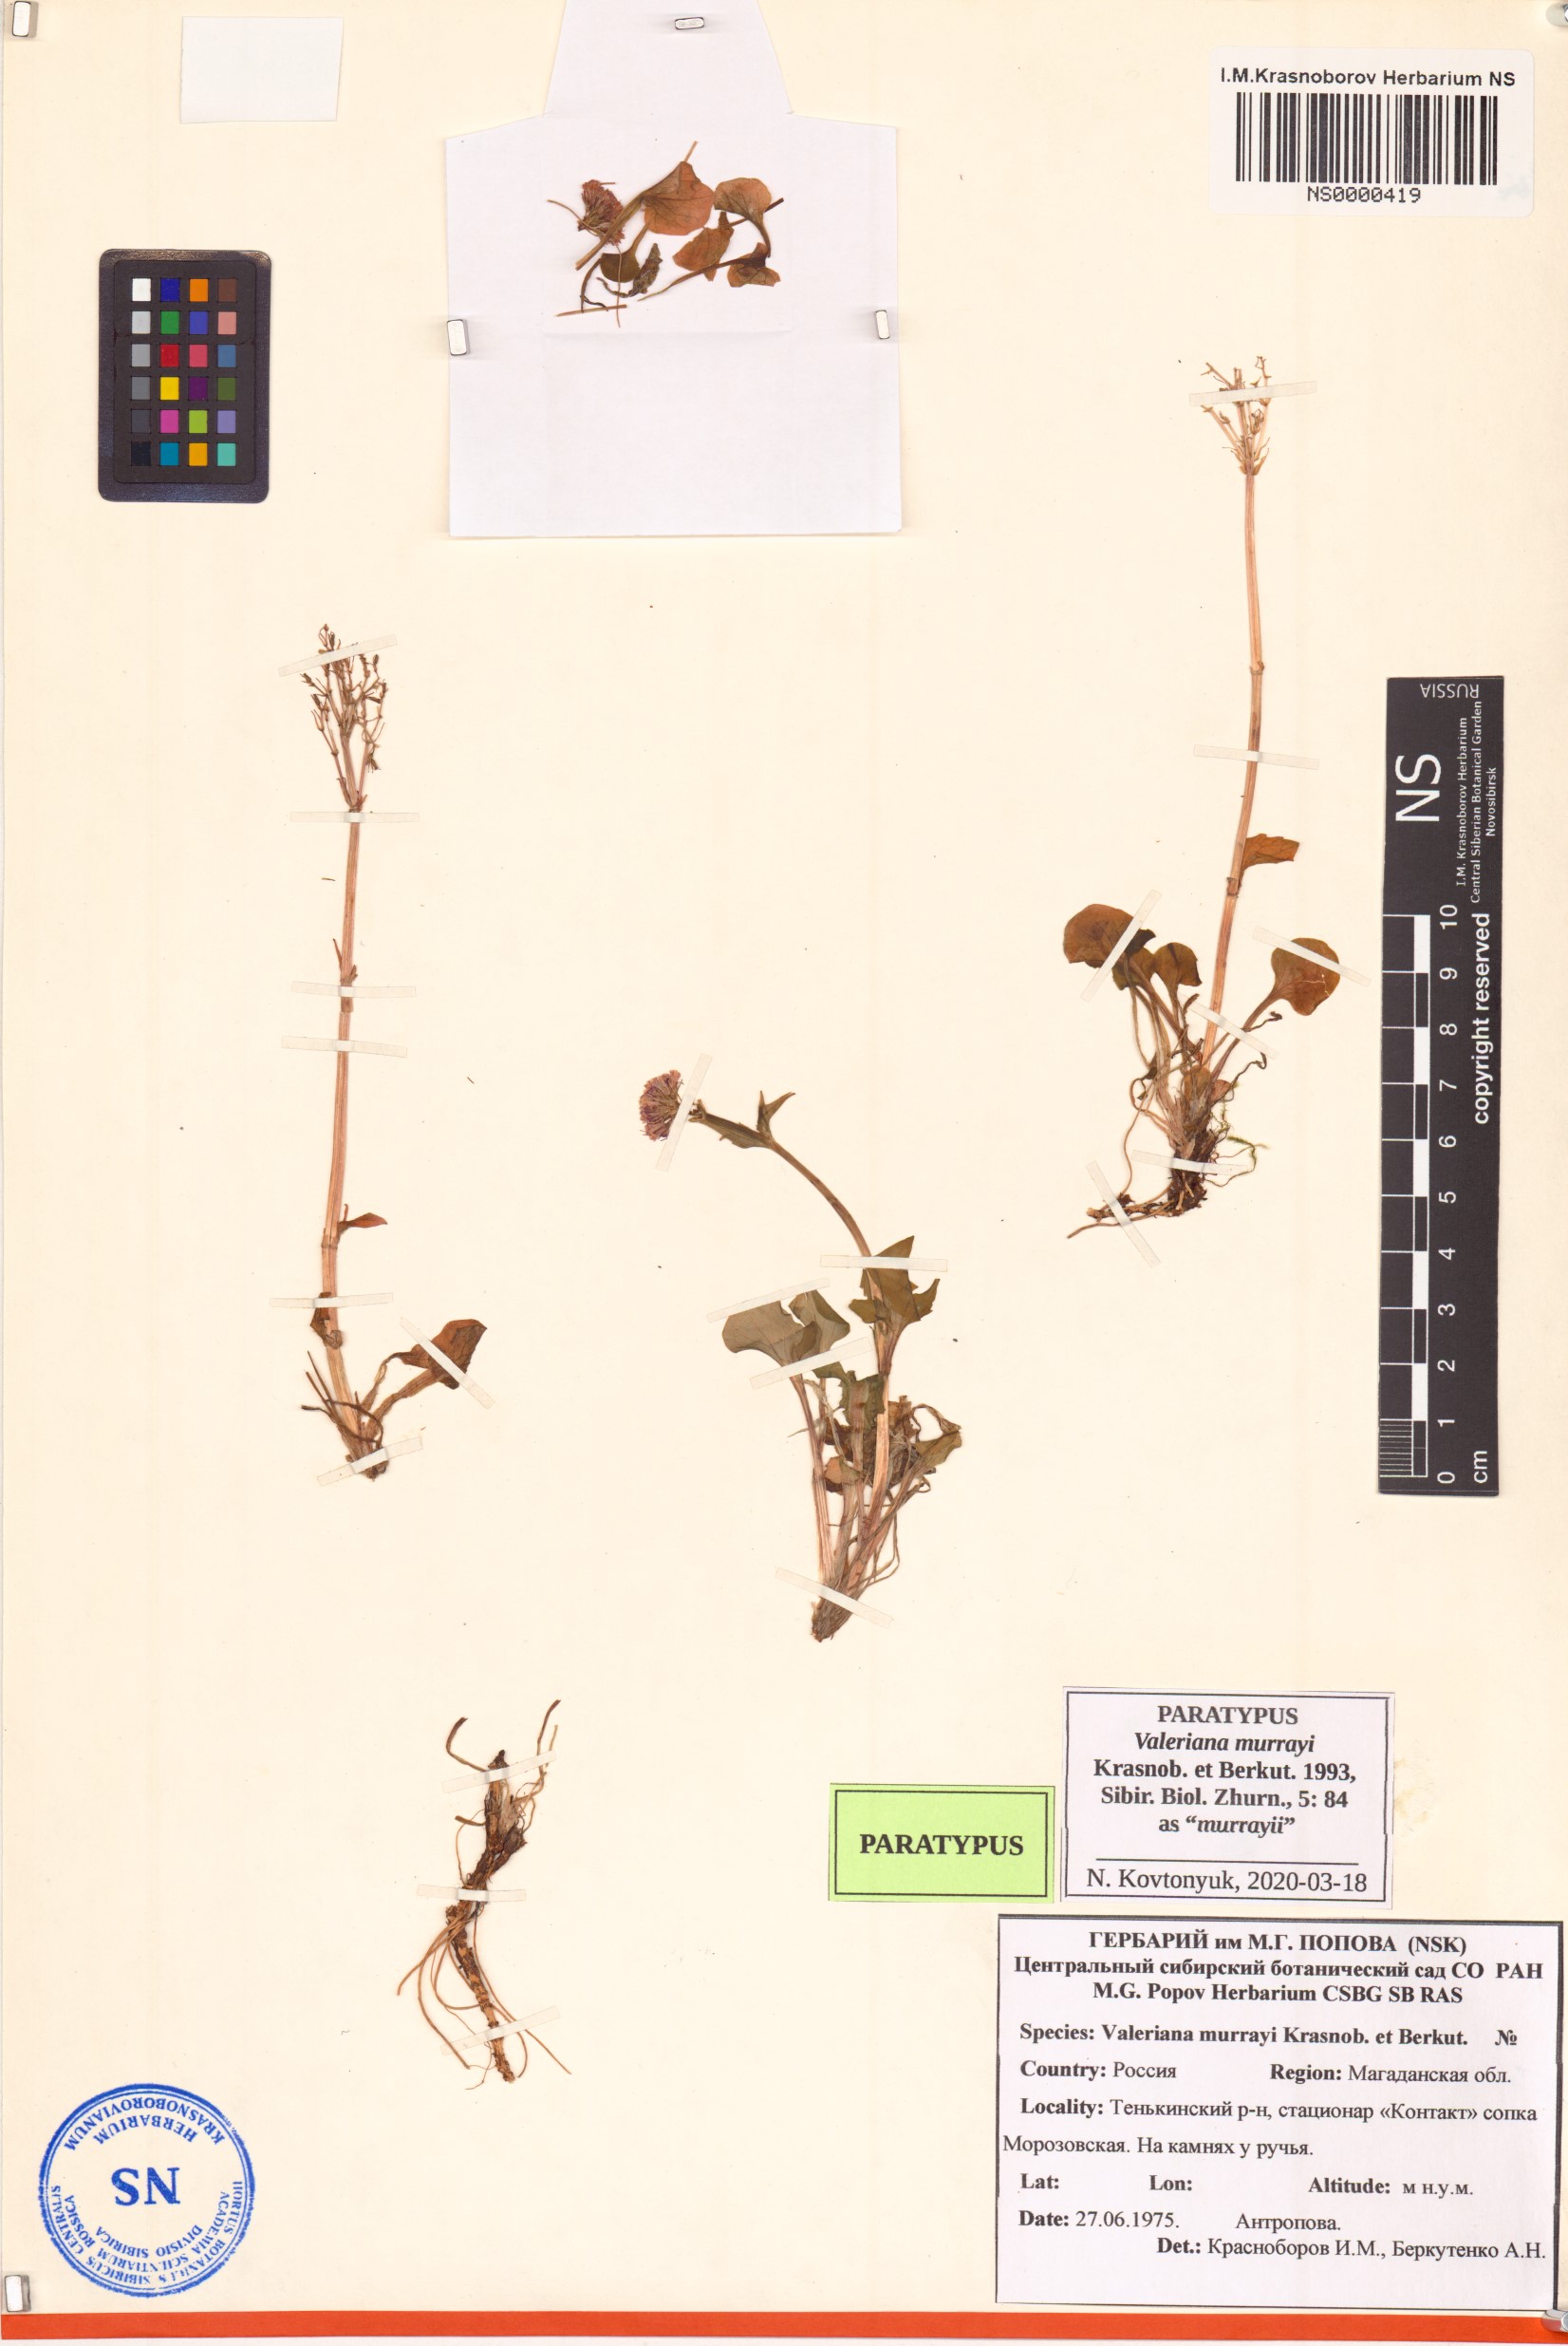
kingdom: Plantae
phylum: Tracheophyta
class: Magnoliopsida
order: Dipsacales
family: Caprifoliaceae
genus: Valeriana
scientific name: Valeriana murrayi
